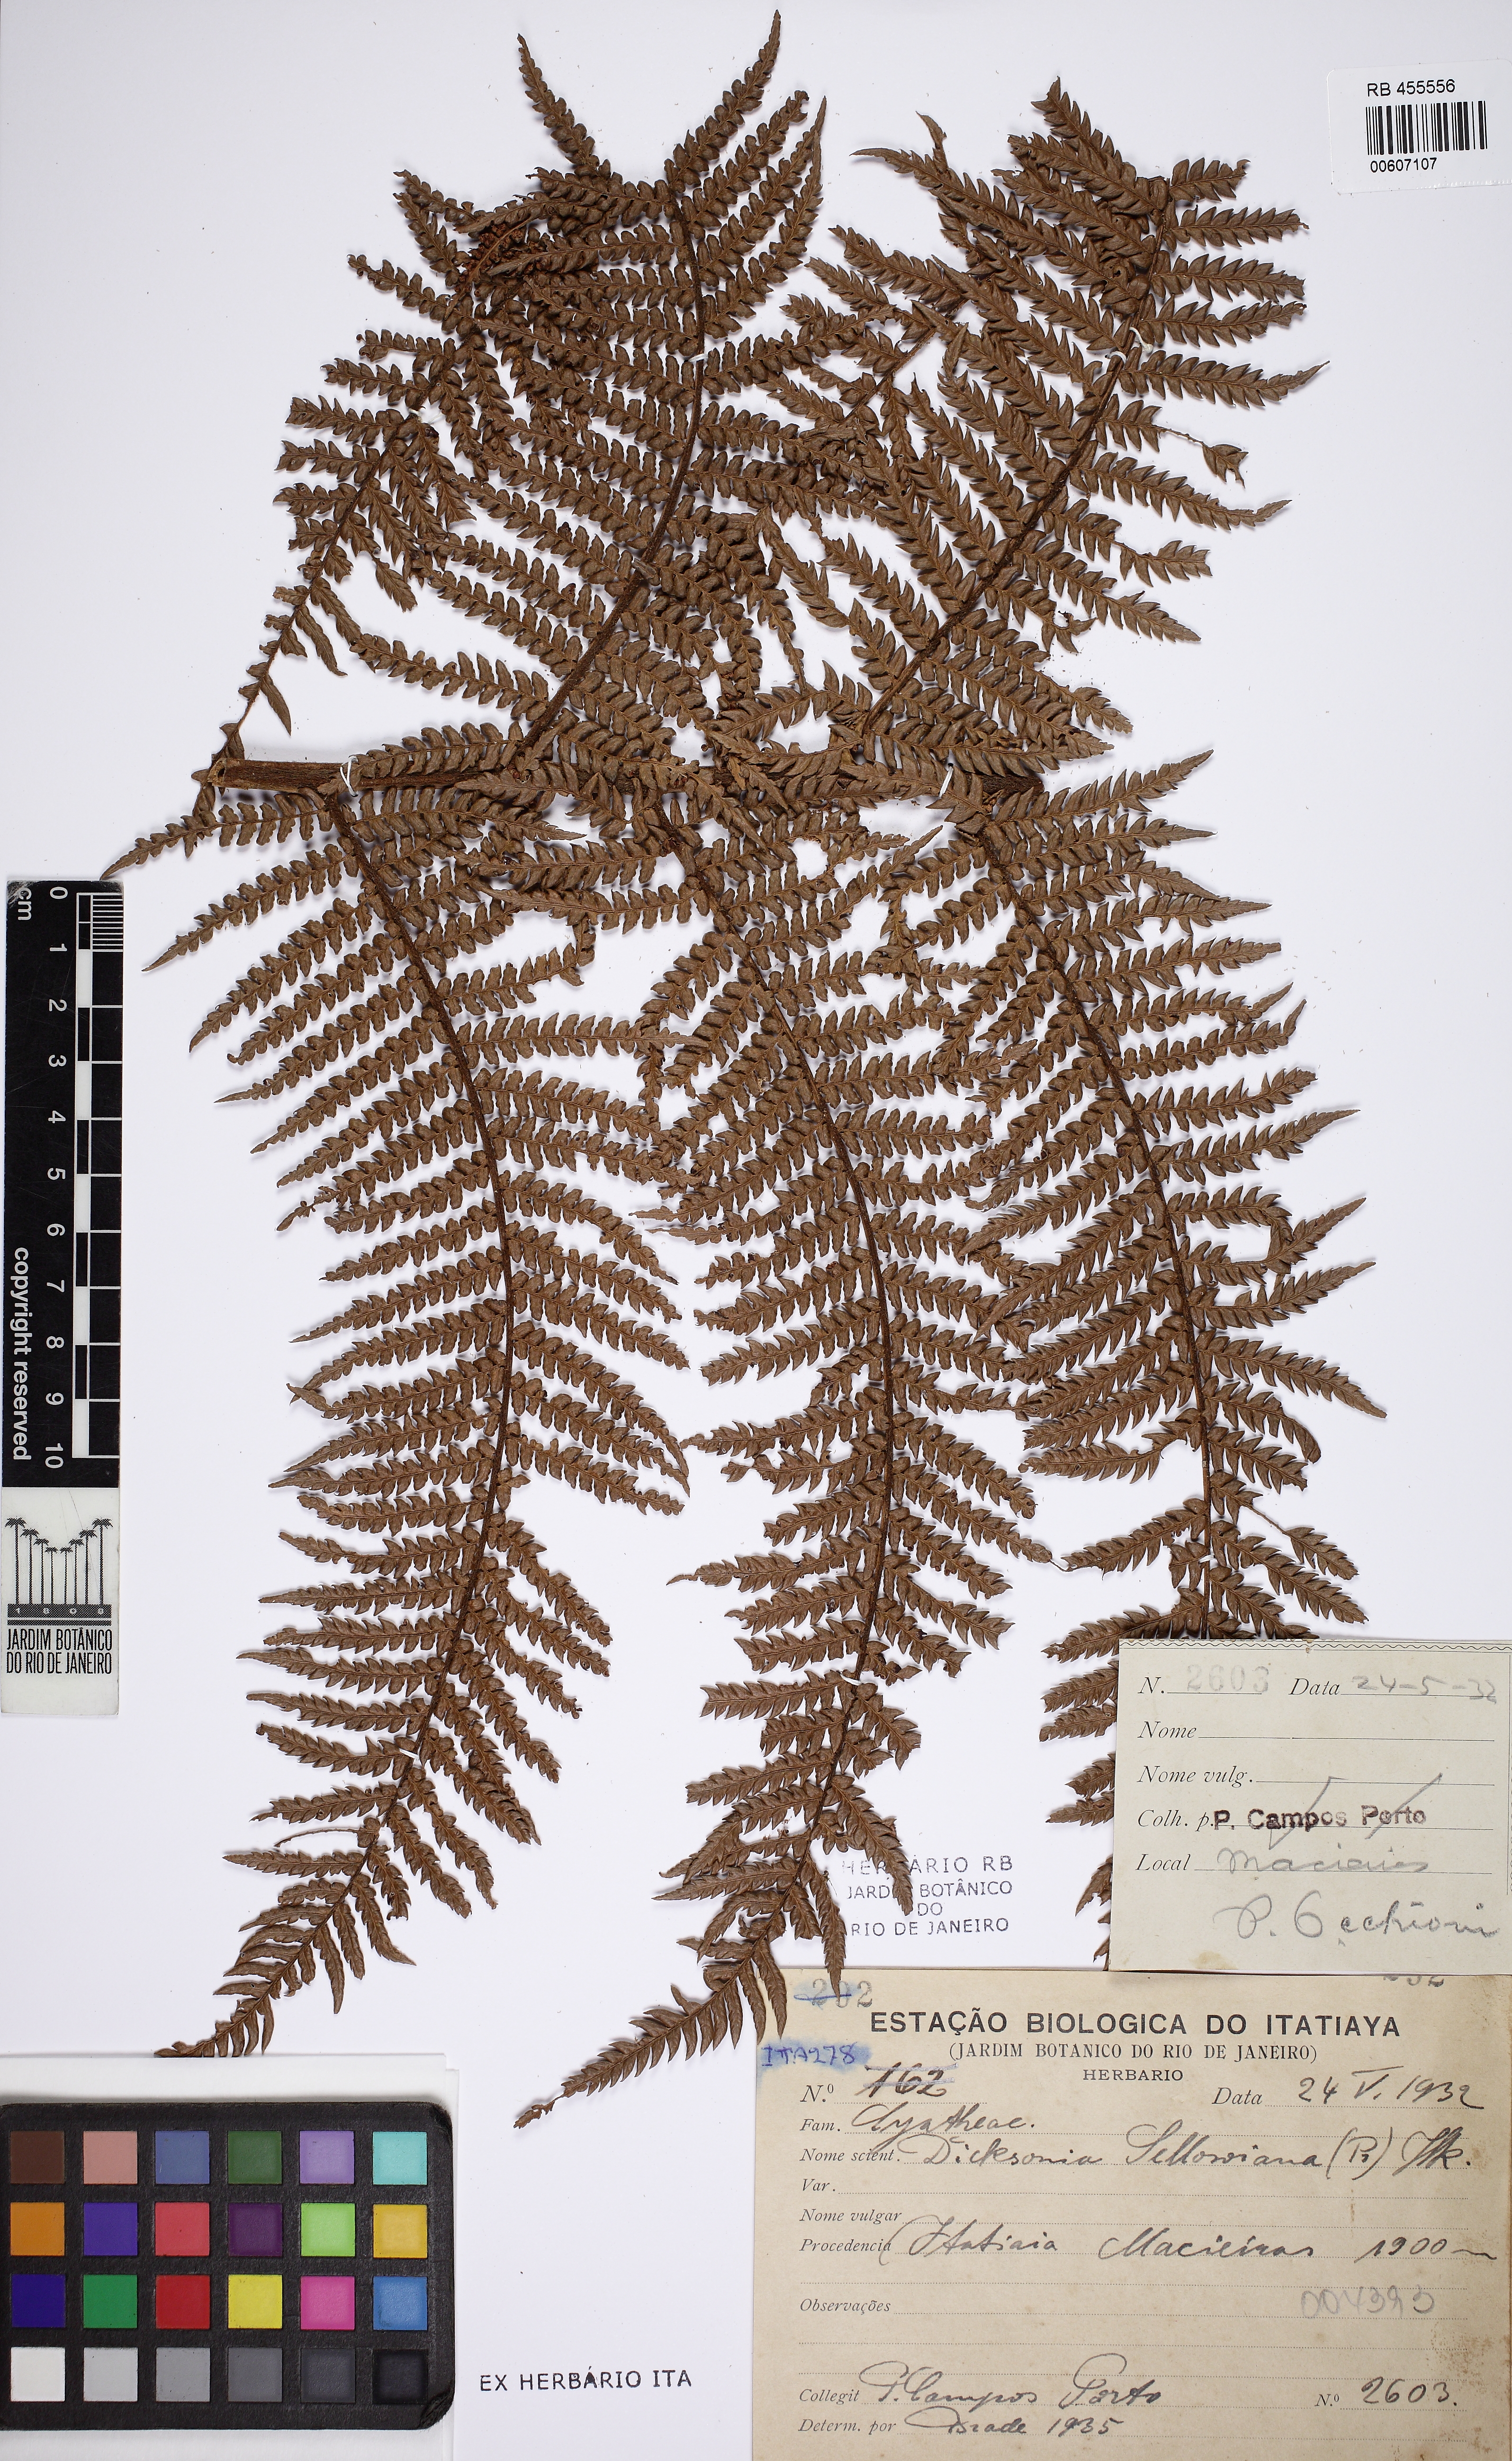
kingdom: Plantae
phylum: Tracheophyta
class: Polypodiopsida
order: Cyatheales
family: Dicksoniaceae
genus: Dicksonia
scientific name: Dicksonia sellowiana
